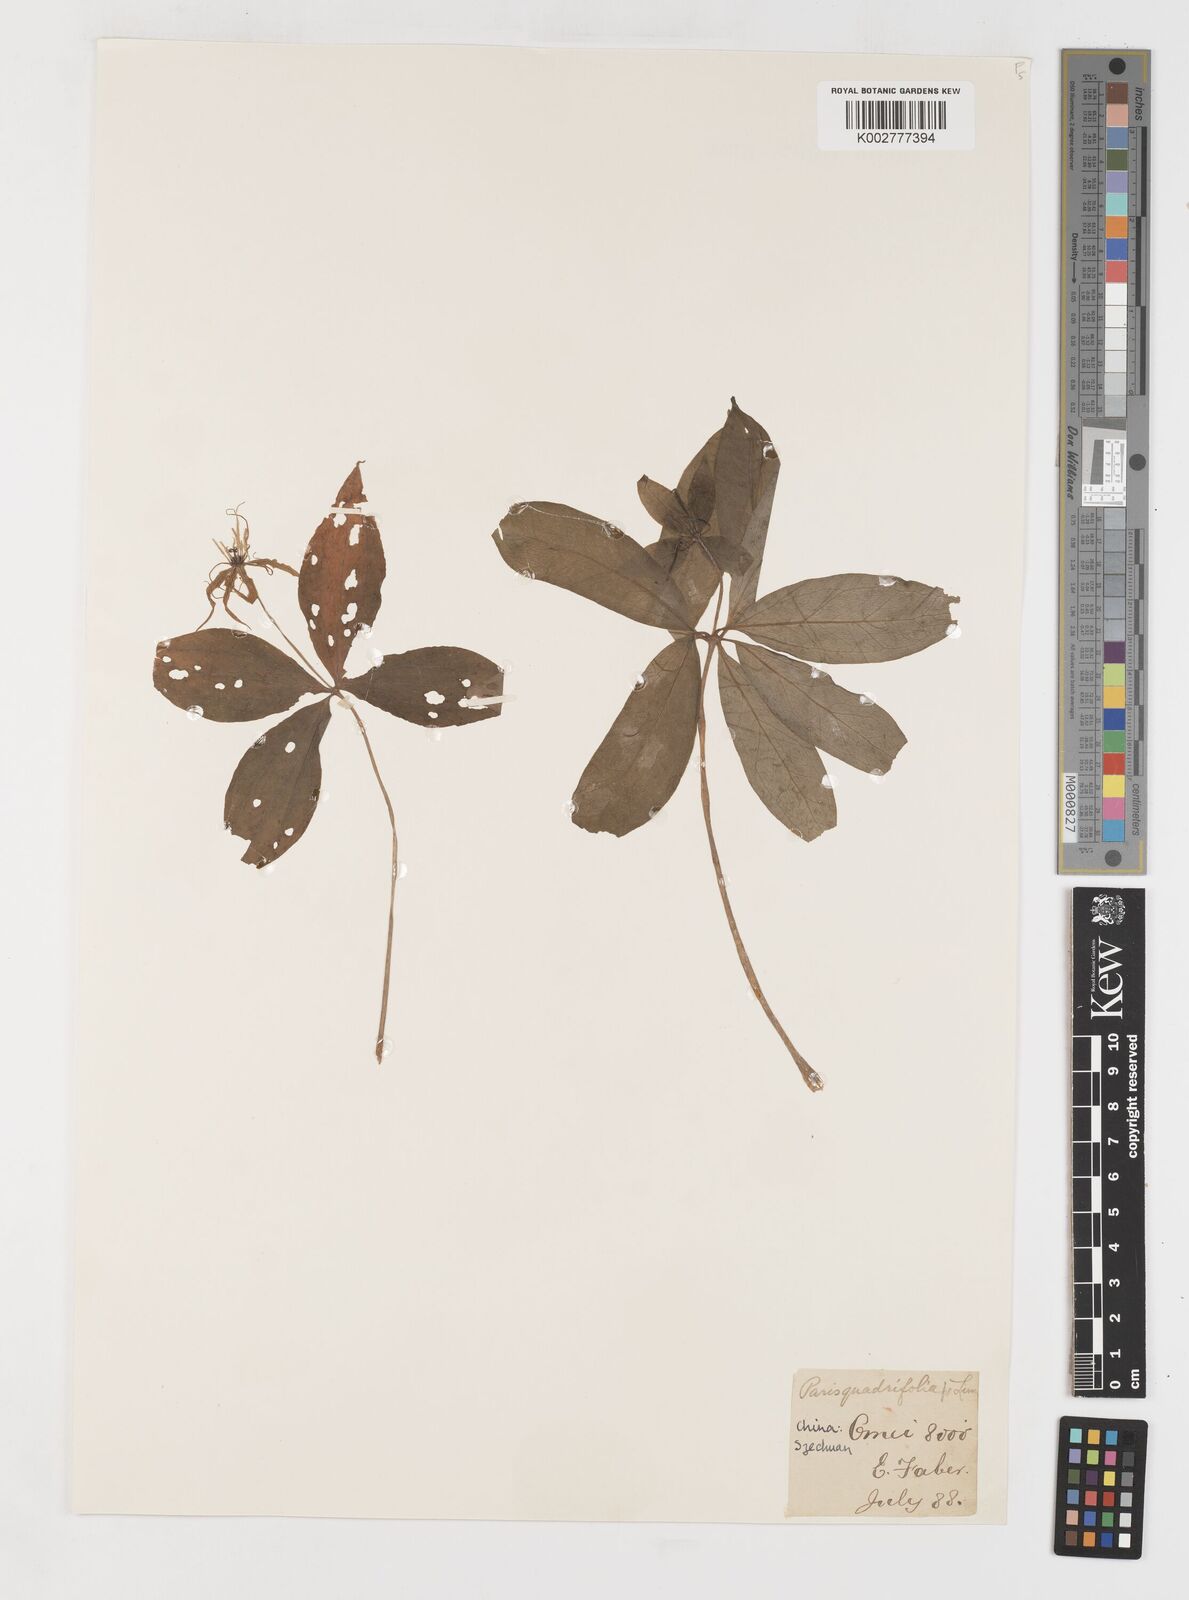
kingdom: Plantae
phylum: Tracheophyta
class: Liliopsida
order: Liliales
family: Melanthiaceae
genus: Paris
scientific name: Paris quadrifolia
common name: Herb-paris
